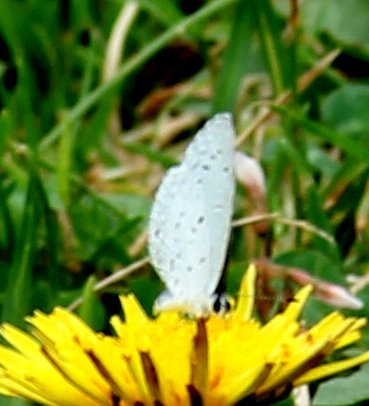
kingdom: Animalia
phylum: Arthropoda
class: Insecta
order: Lepidoptera
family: Lycaenidae
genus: Celastrina
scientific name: Celastrina
